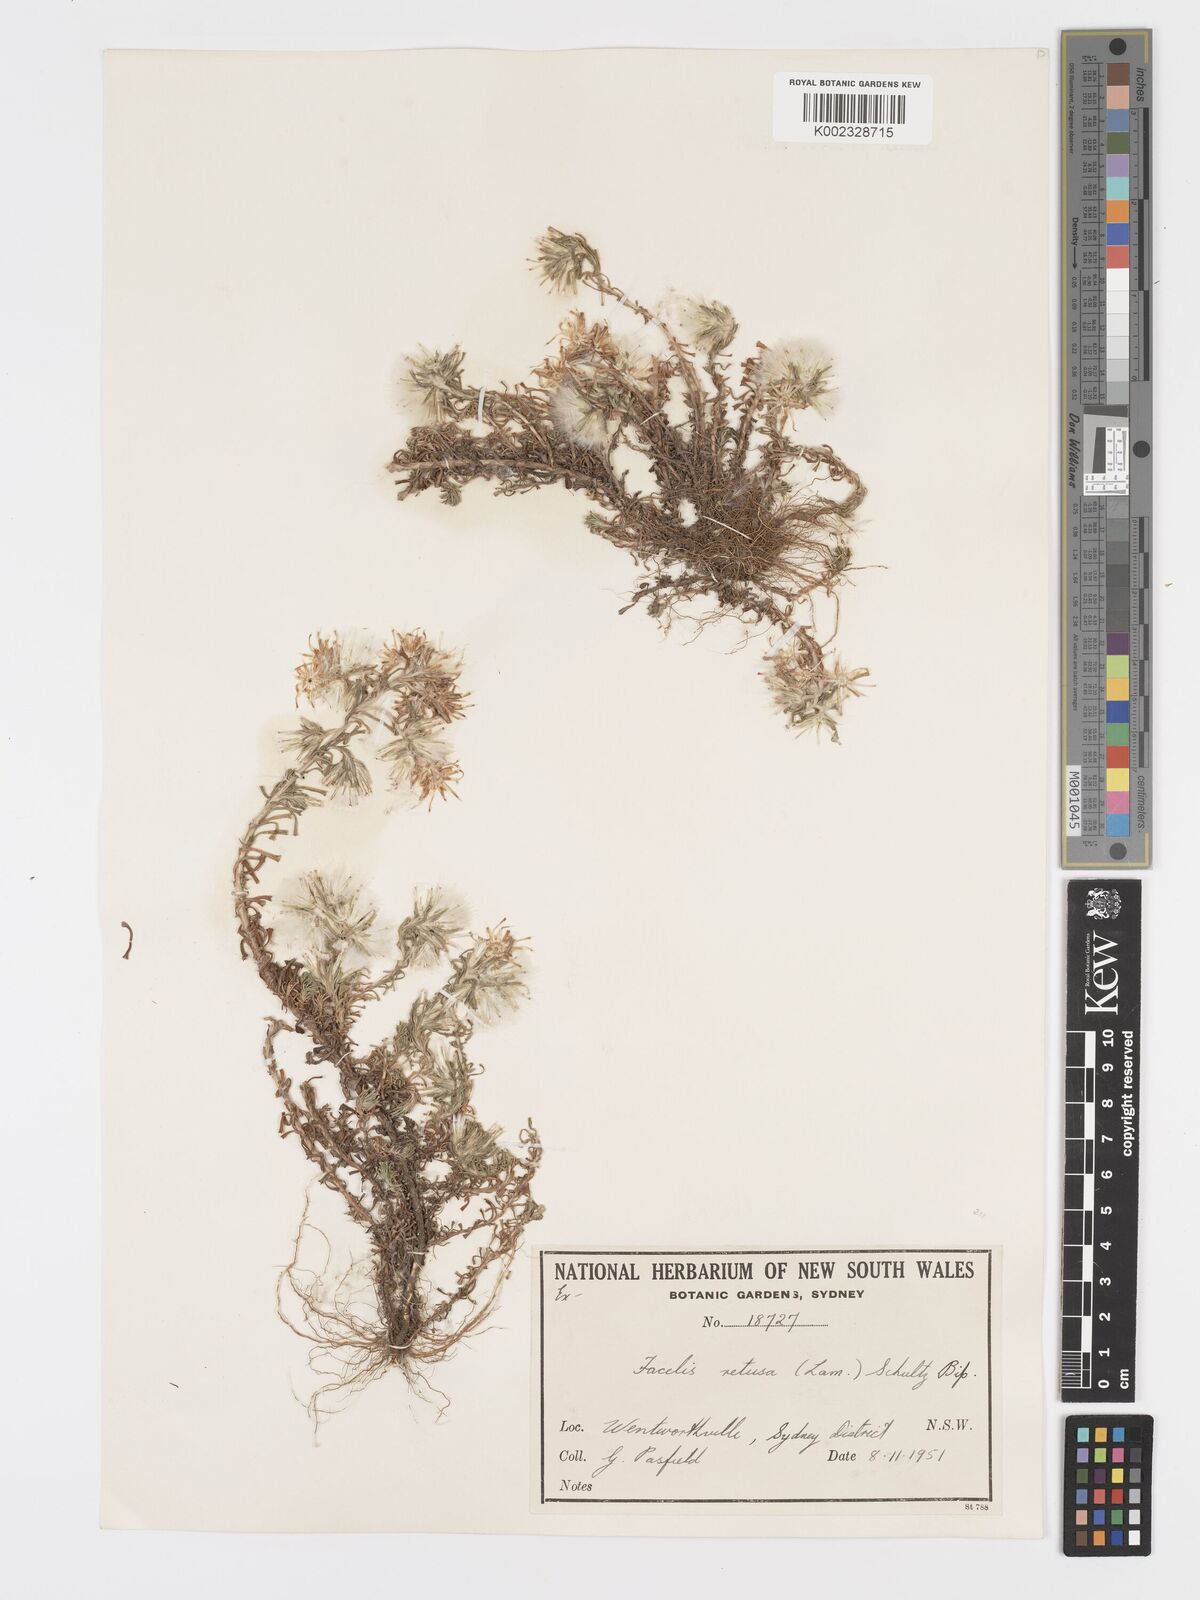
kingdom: Plantae
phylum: Tracheophyta
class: Magnoliopsida
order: Asterales
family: Asteraceae
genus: Facelis
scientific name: Facelis retusa
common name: Annual trampweed
